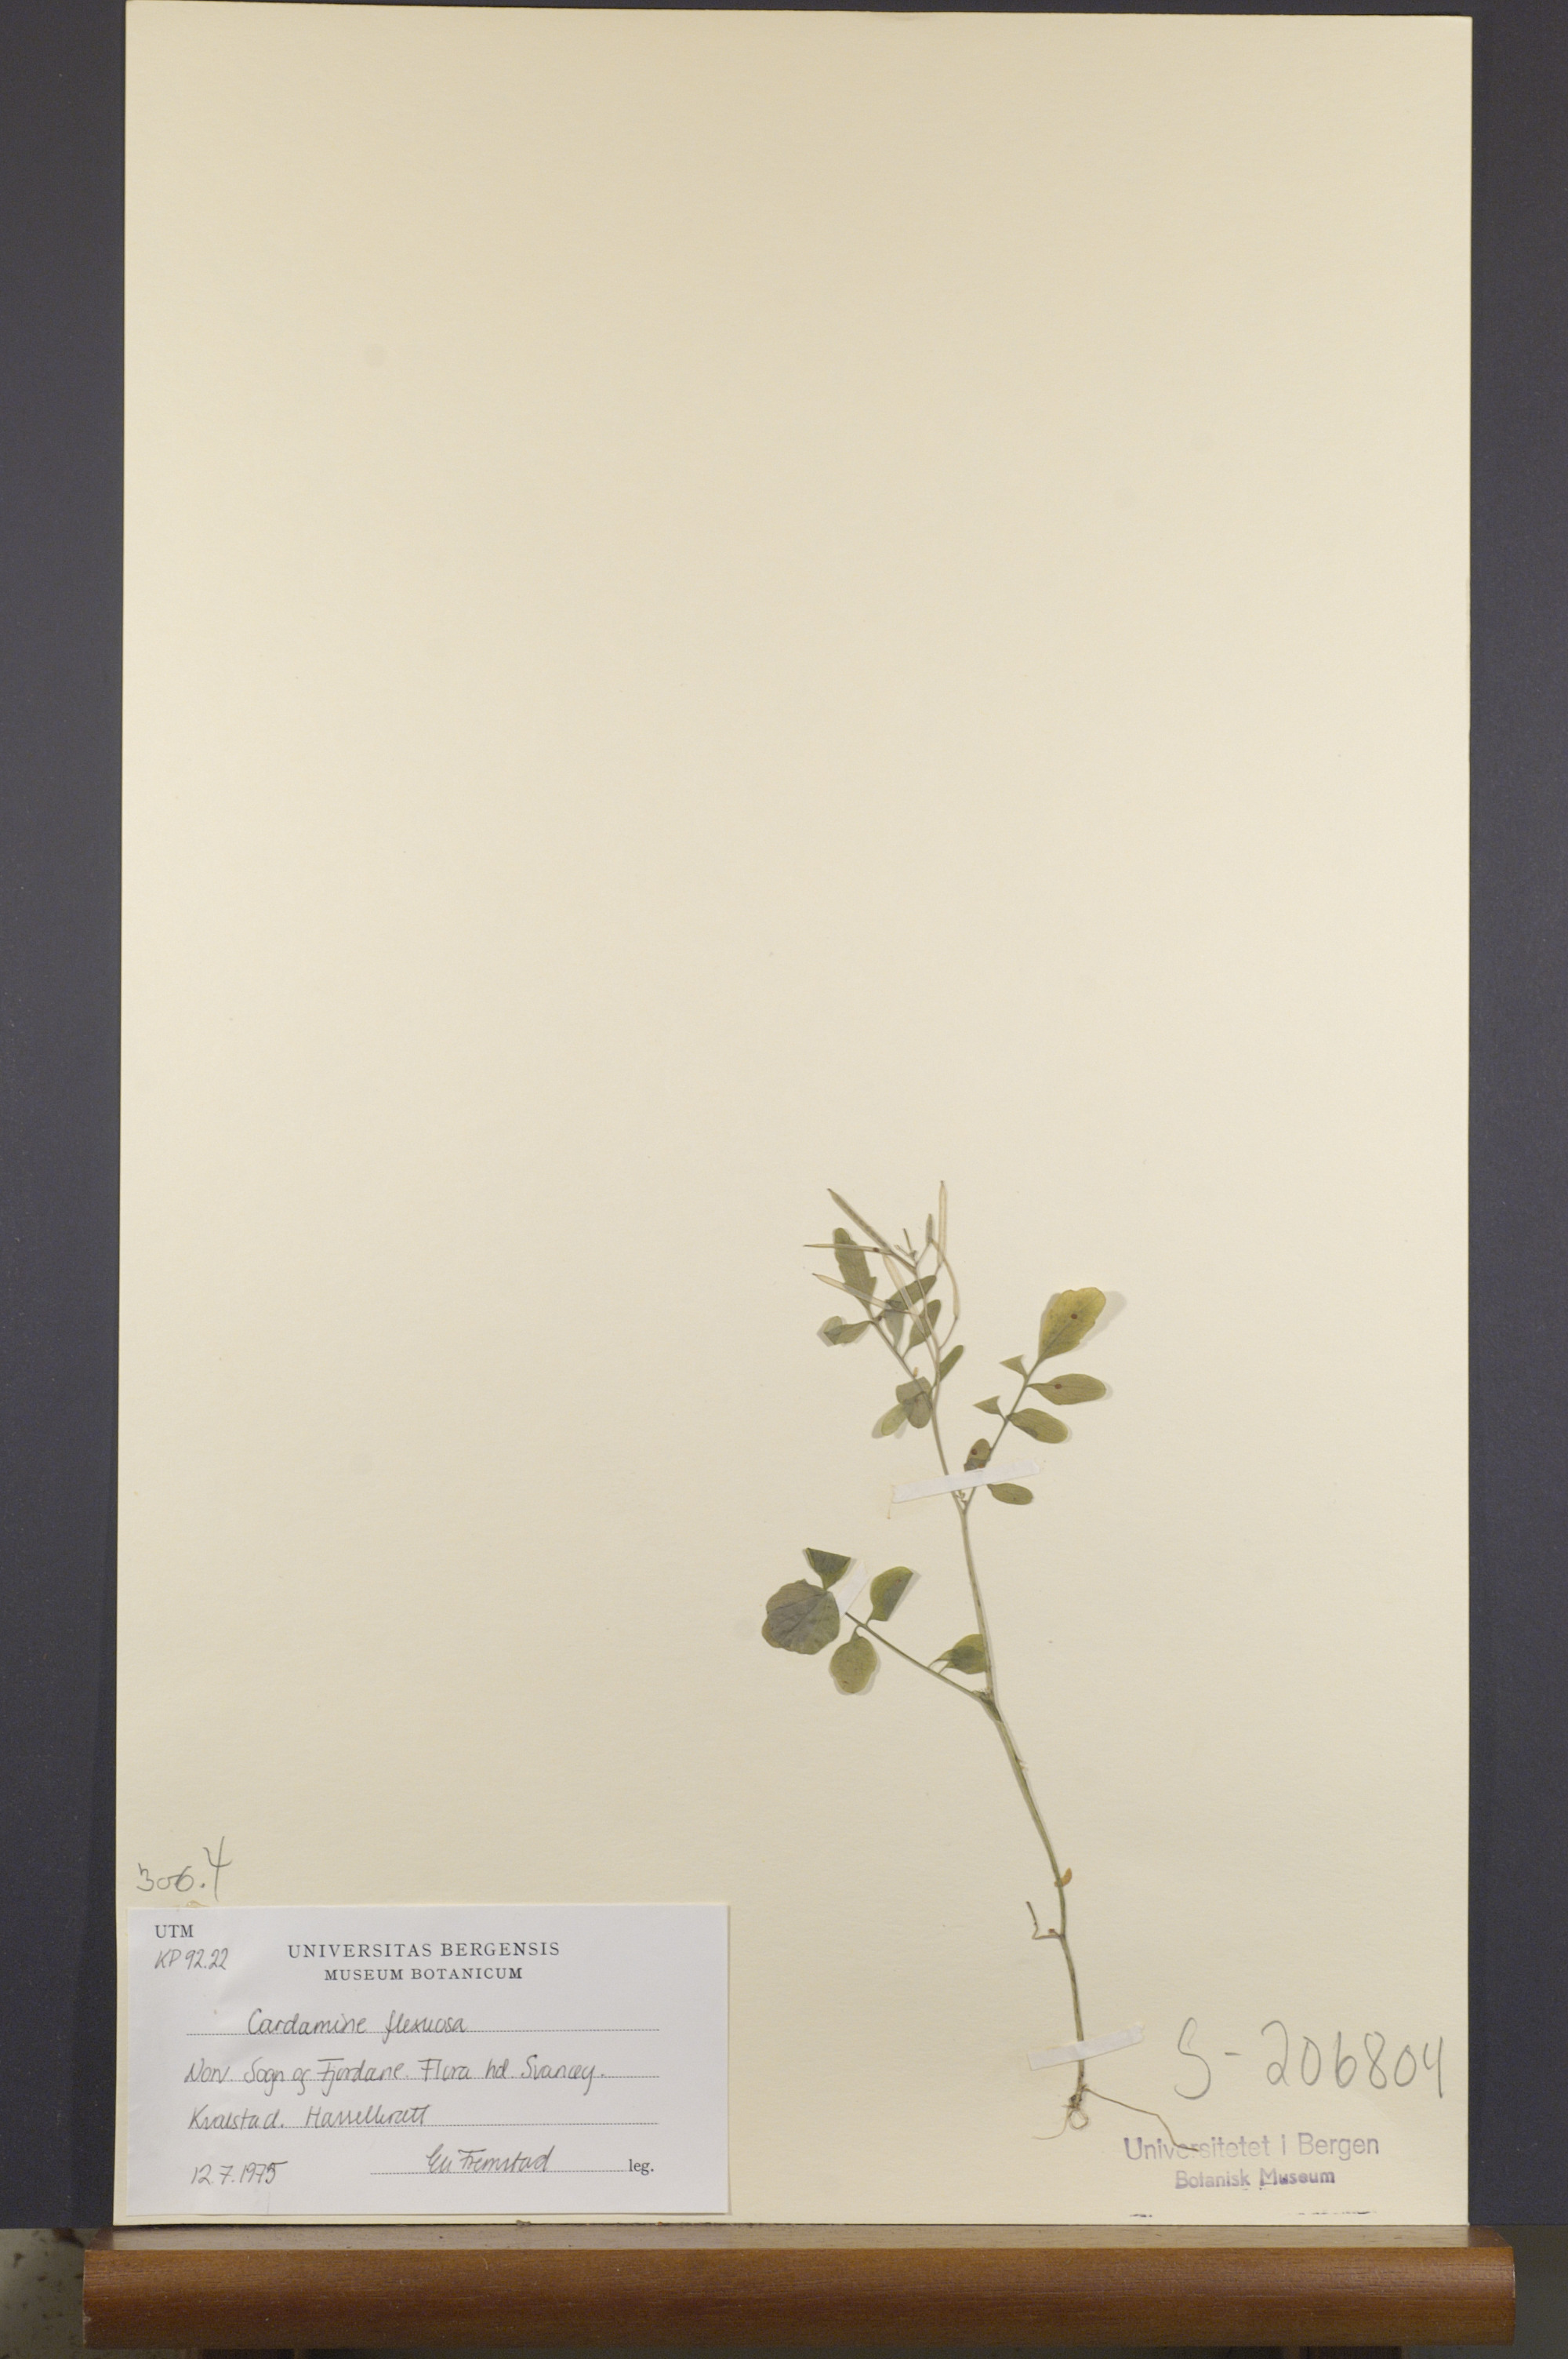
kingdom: Plantae
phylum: Tracheophyta
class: Magnoliopsida
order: Brassicales
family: Brassicaceae
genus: Cardamine
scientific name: Cardamine flexuosa
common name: Woodland bittercress
